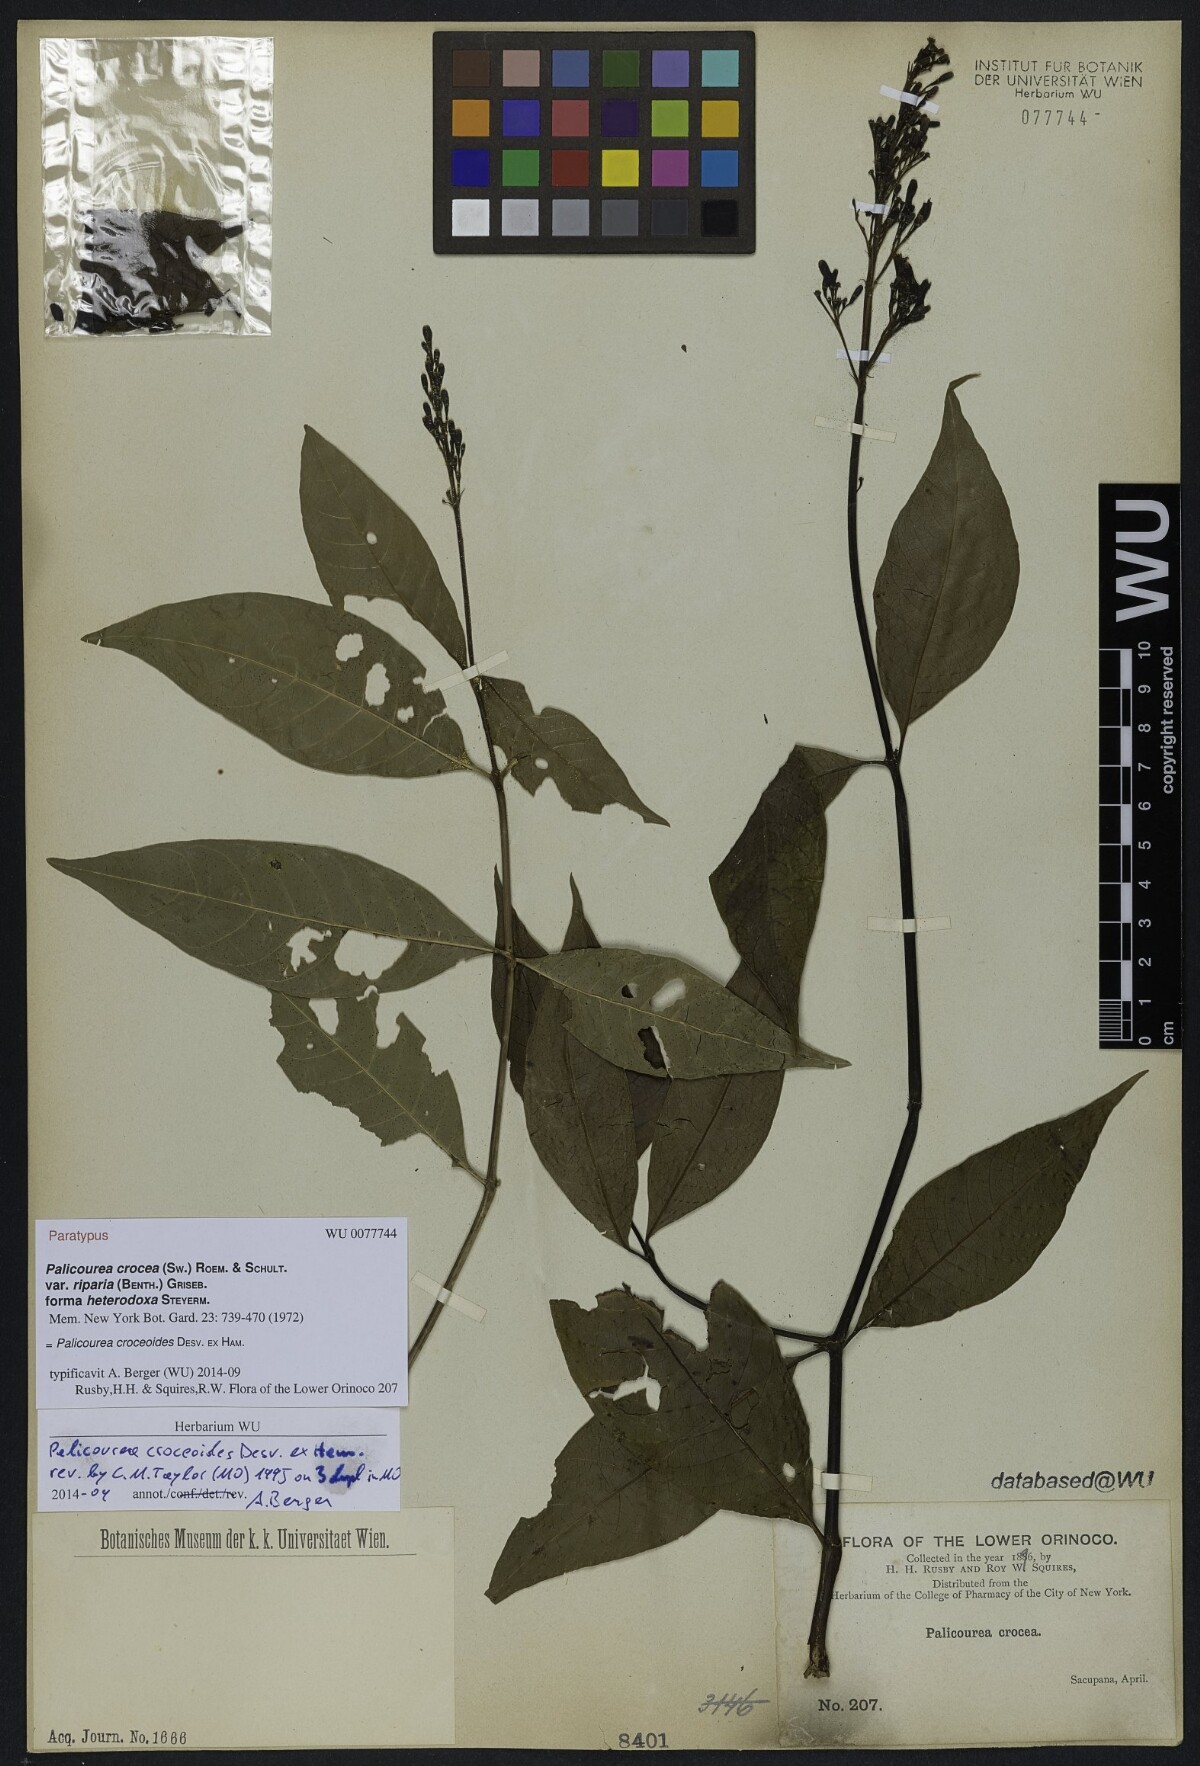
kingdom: Plantae
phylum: Tracheophyta
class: Magnoliopsida
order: Gentianales
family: Rubiaceae
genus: Palicourea
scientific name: Palicourea croceoides
